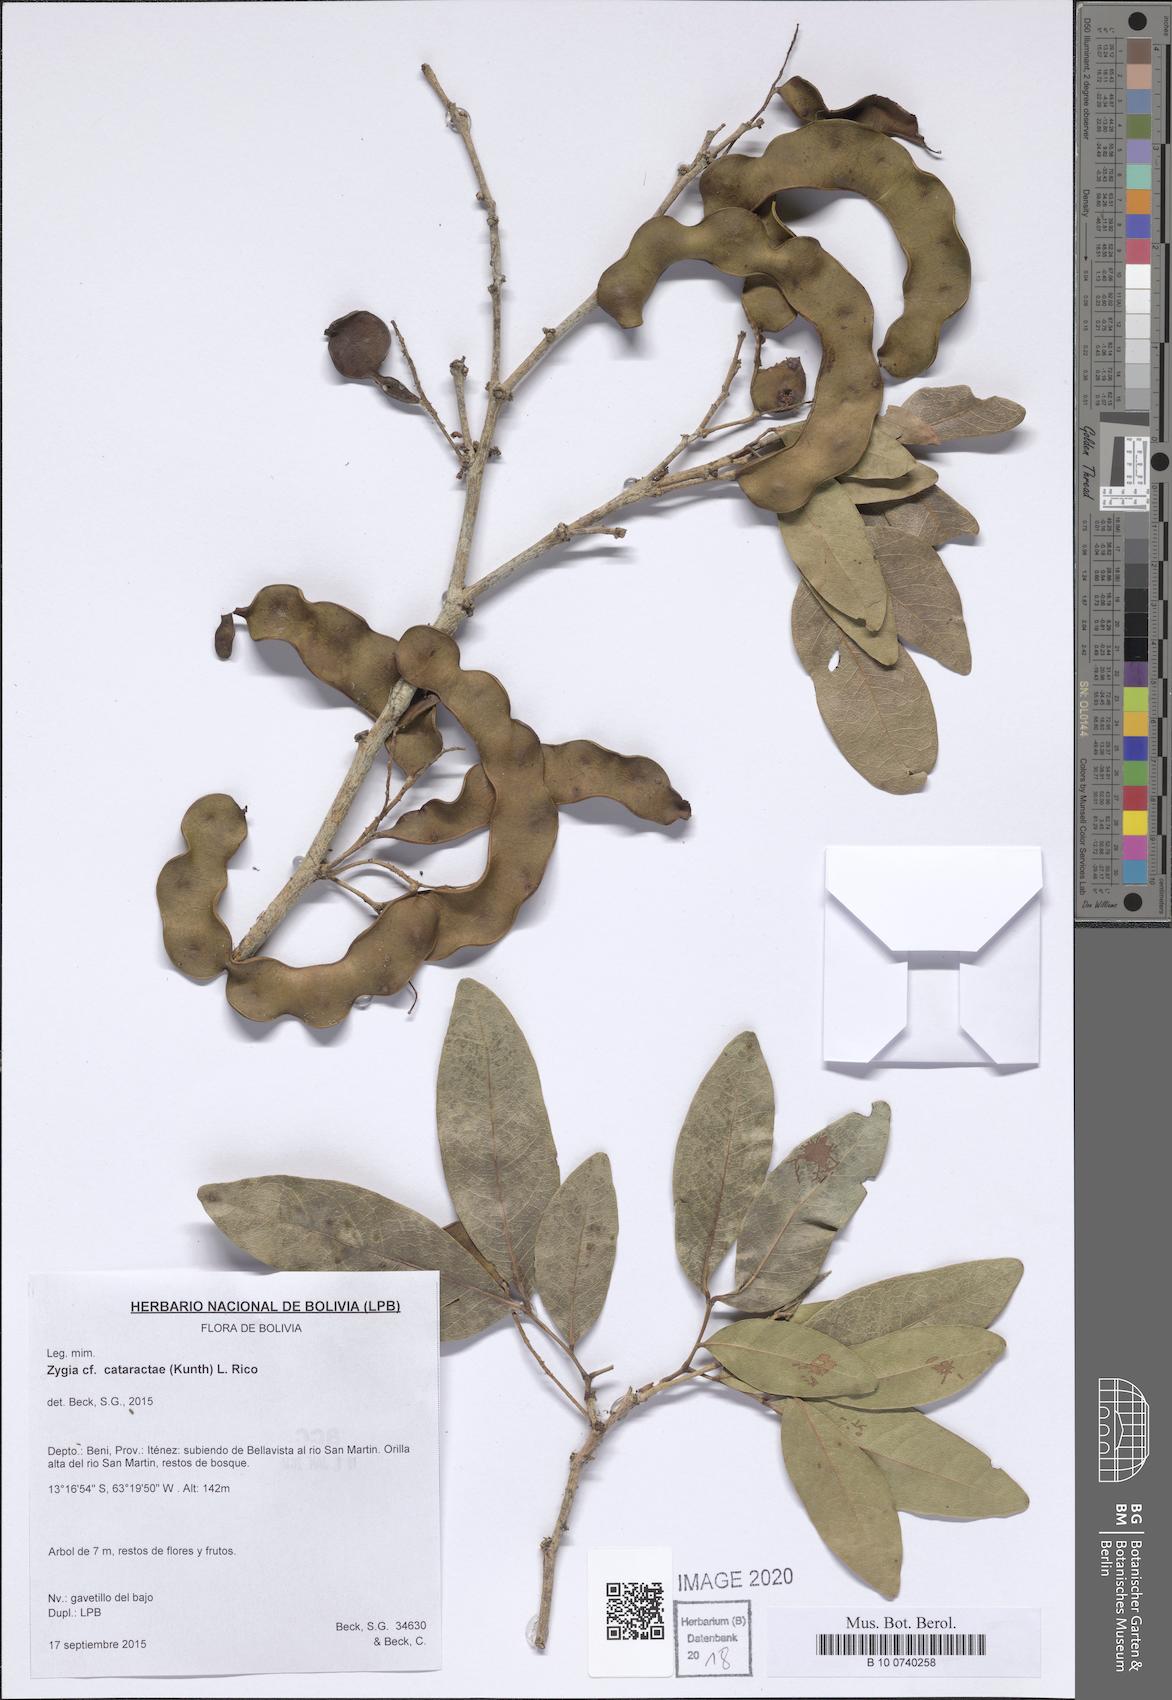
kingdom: Plantae
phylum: Tracheophyta
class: Magnoliopsida
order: Fabales
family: Fabaceae
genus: Zygia
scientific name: Zygia cataractae
